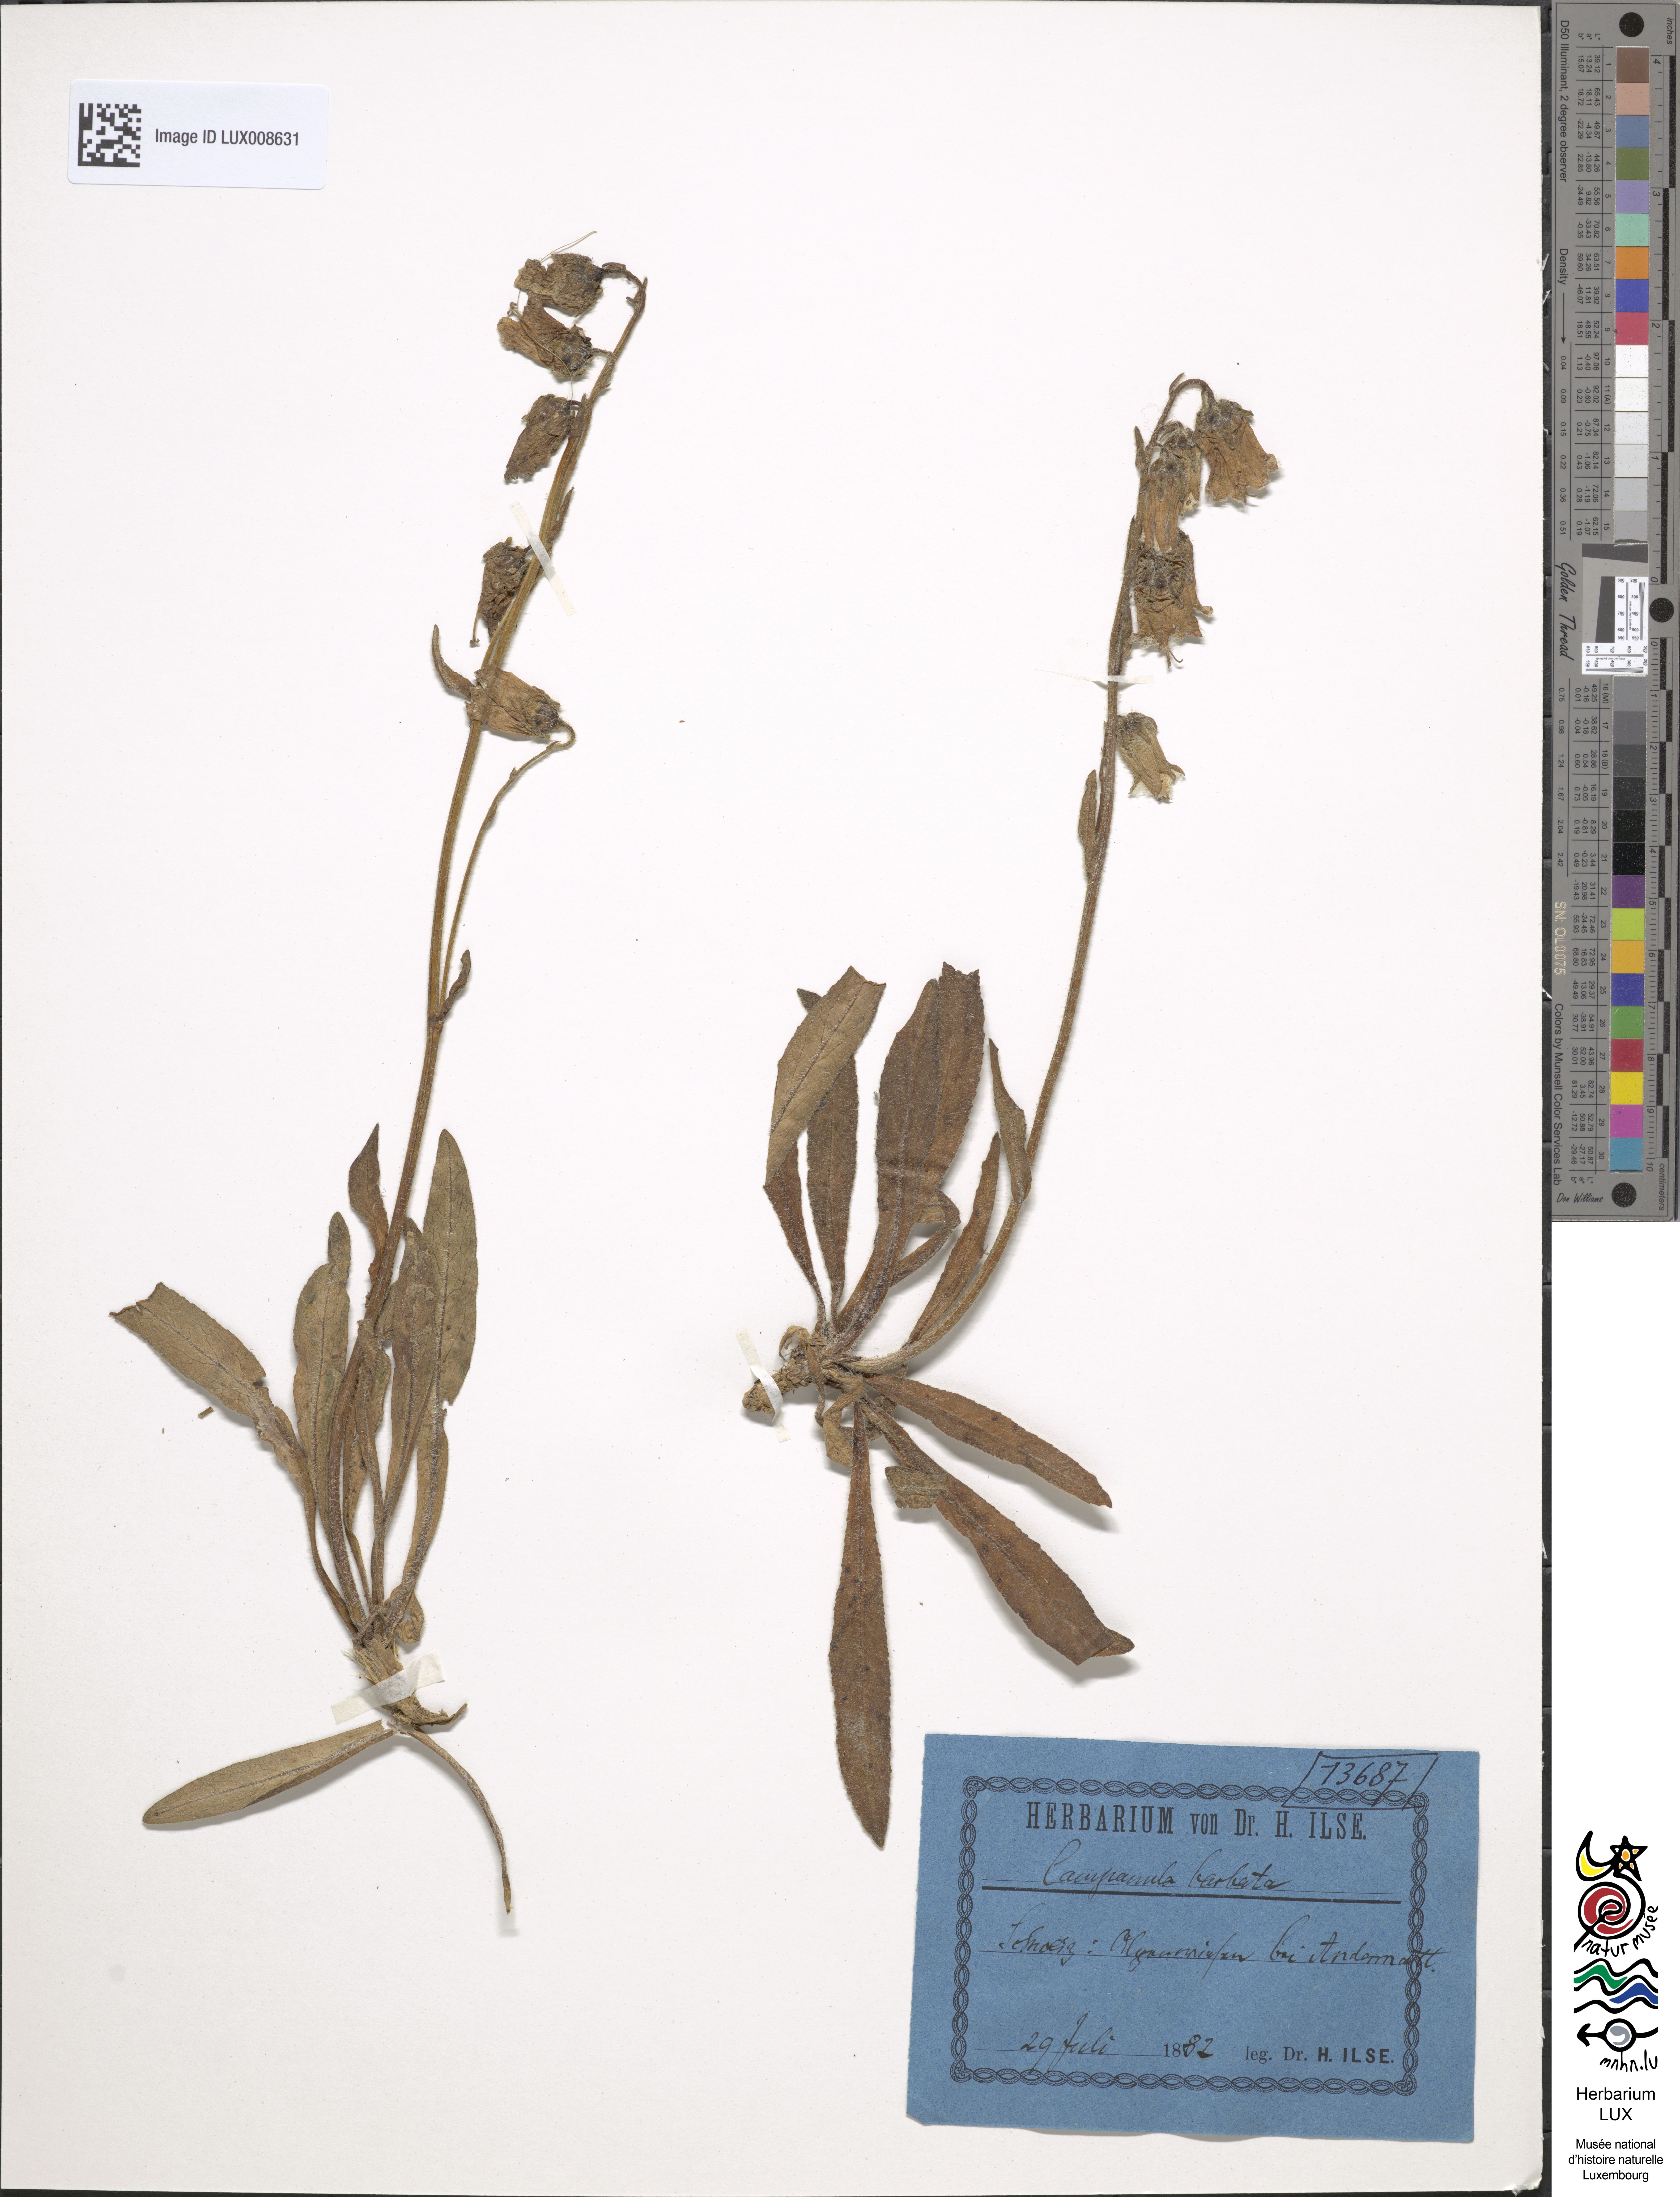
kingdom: Plantae
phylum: Tracheophyta
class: Magnoliopsida
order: Asterales
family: Campanulaceae
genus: Campanula
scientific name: Campanula barbata
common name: Bearded bellflower
